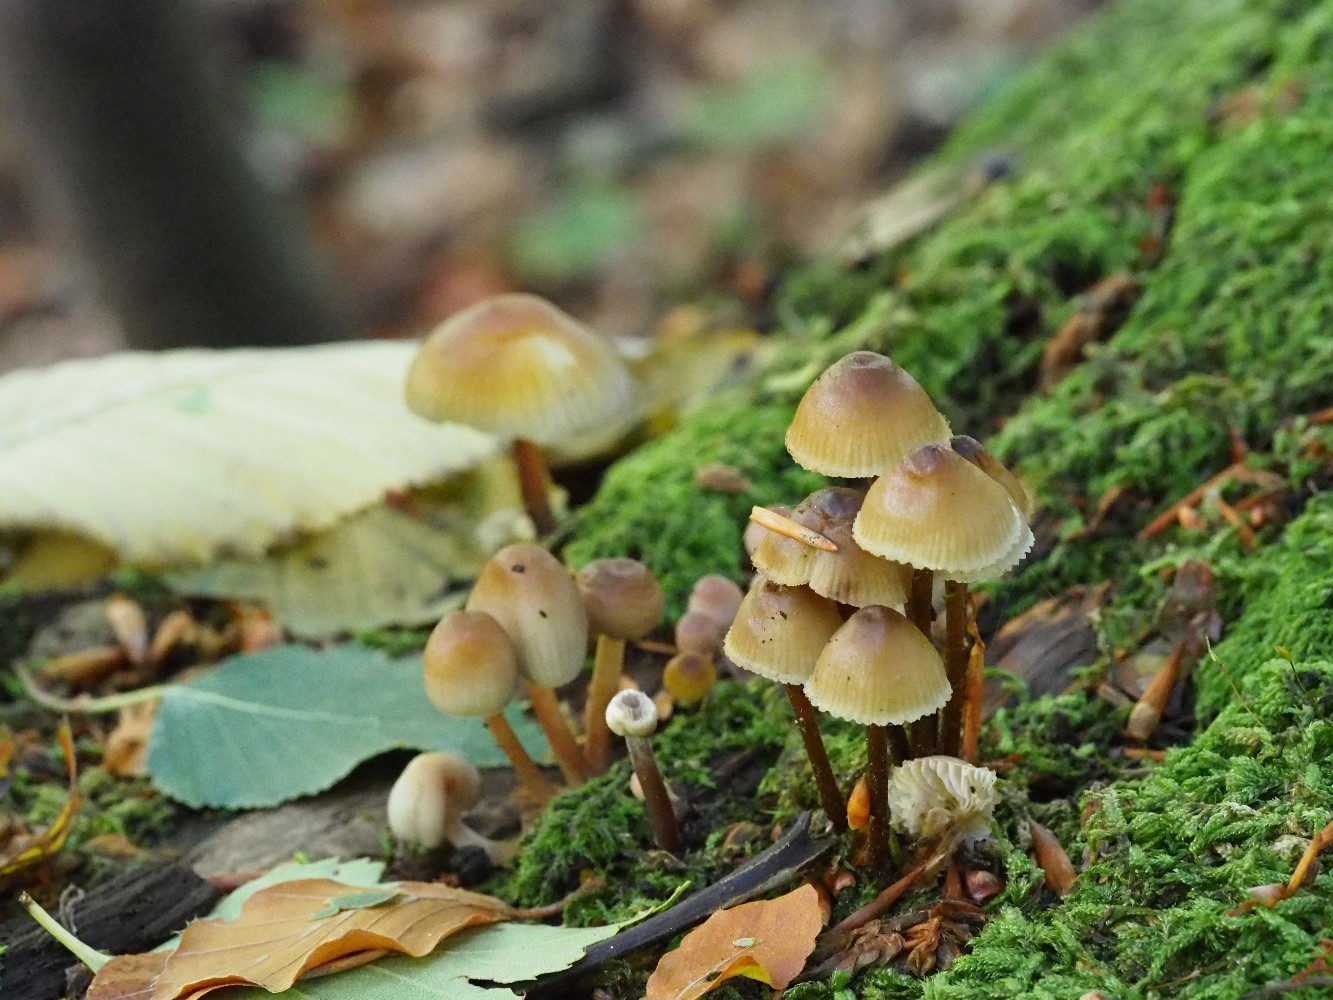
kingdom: Fungi
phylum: Basidiomycota
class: Agaricomycetes
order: Agaricales
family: Mycenaceae
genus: Mycena
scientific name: Mycena inclinata
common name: nikkende huesvamp
